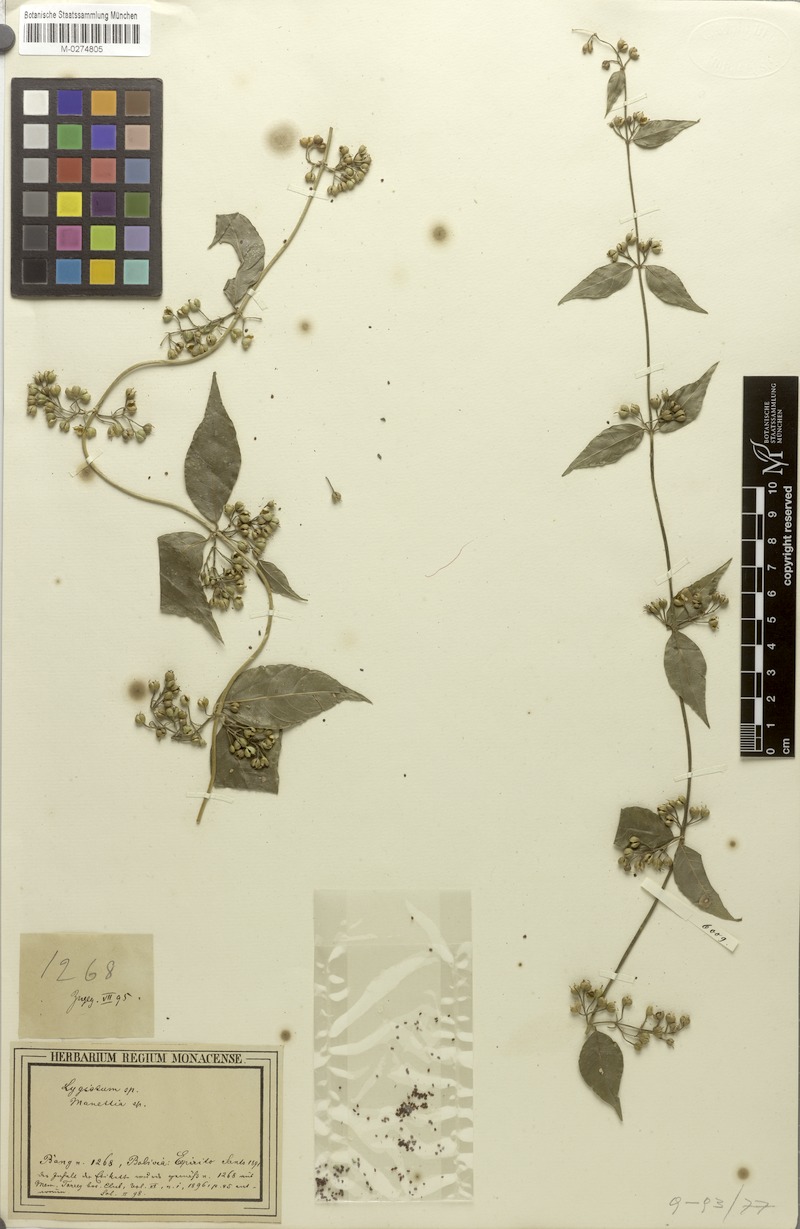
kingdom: Plantae
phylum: Tracheophyta
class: Magnoliopsida
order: Gentianales
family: Rubiaceae
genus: Manettia
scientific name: Manettia bangii
